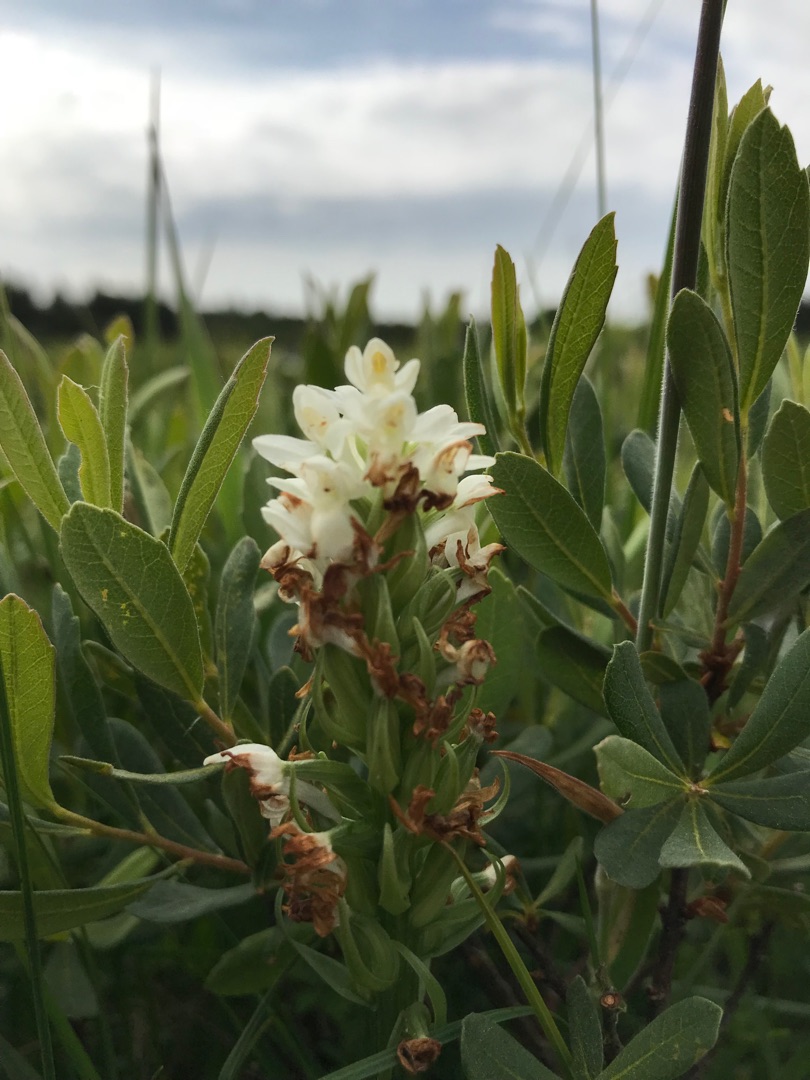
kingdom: Plantae
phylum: Tracheophyta
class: Liliopsida
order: Asparagales
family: Orchidaceae
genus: Dactylorhiza
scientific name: Dactylorhiza majalis
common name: Thy-gøgeurt
